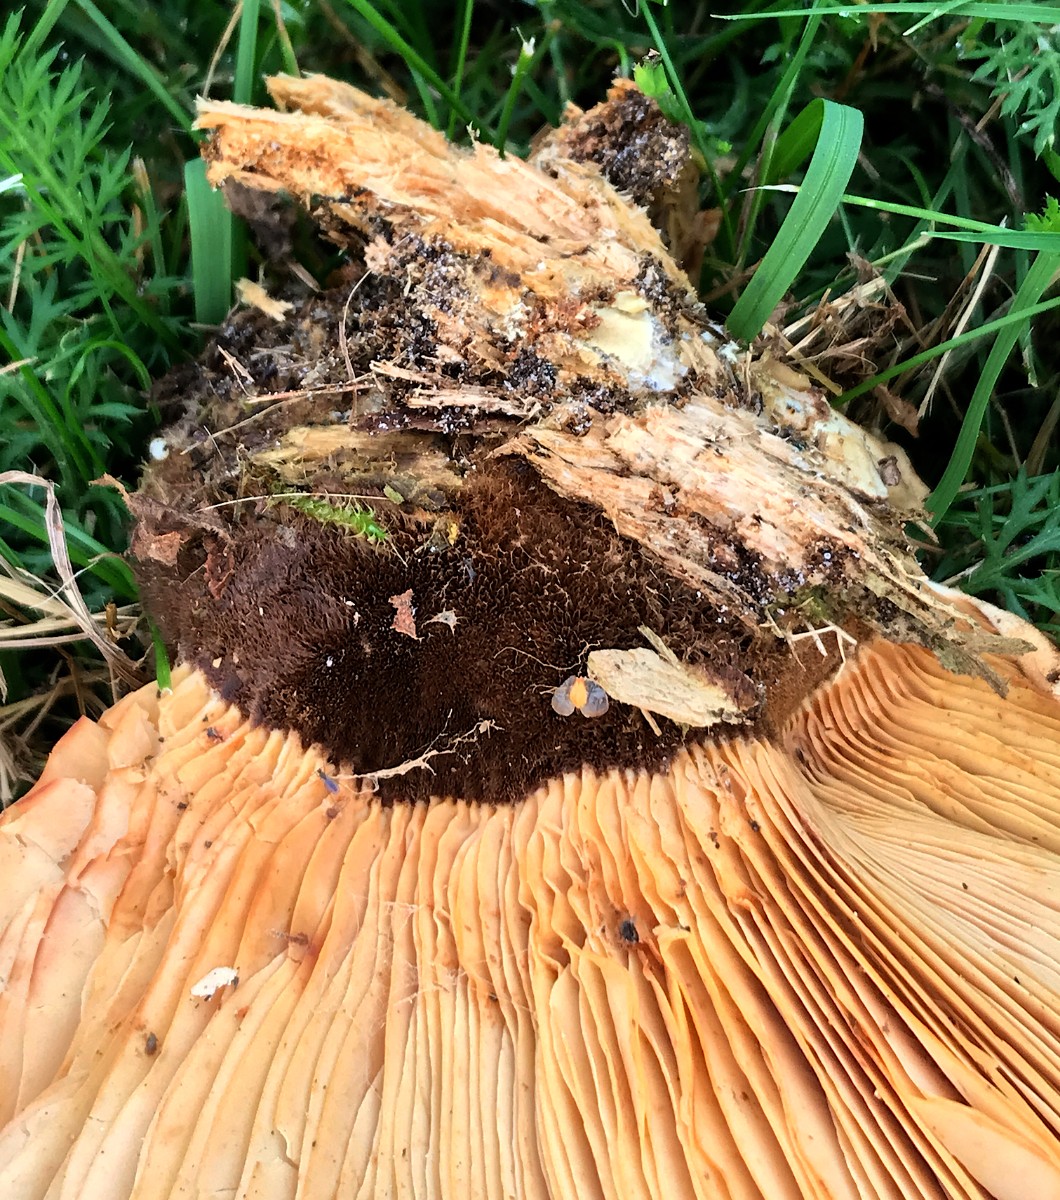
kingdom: Fungi
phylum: Basidiomycota
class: Agaricomycetes
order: Boletales
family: Tapinellaceae
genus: Tapinella
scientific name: Tapinella atrotomentosa
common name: sortfiltet viftesvamp
